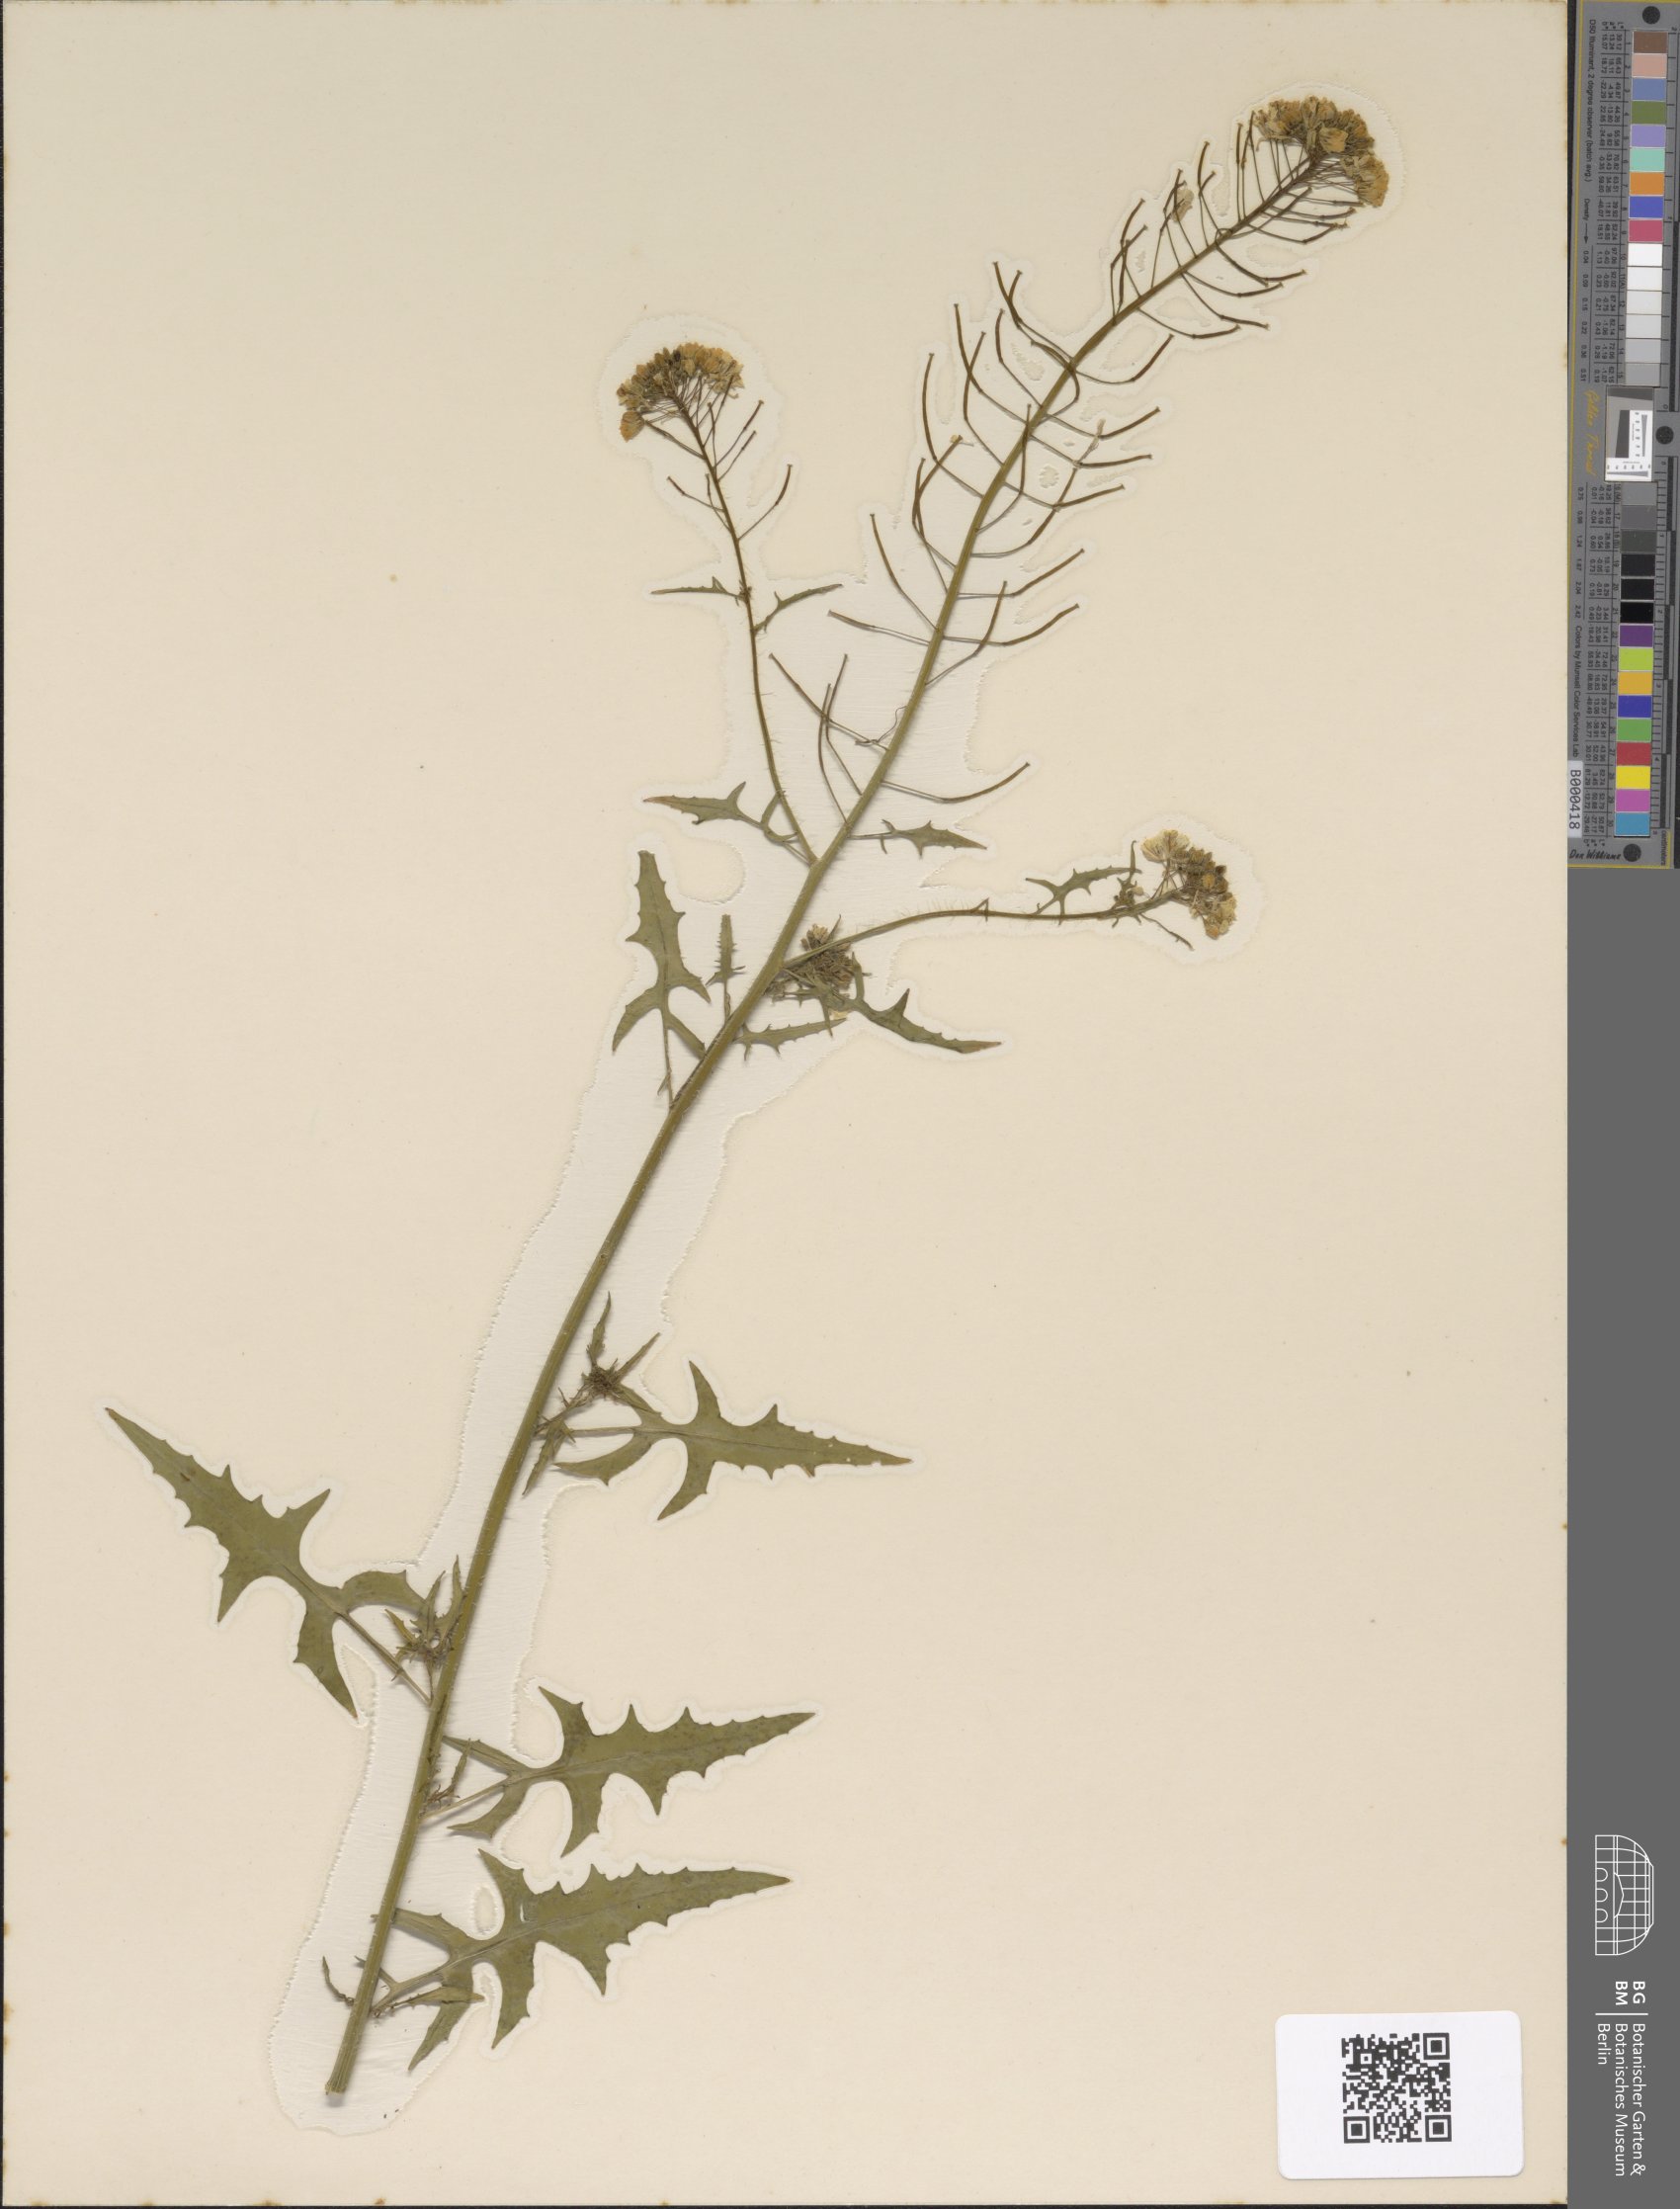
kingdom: Plantae
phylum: Tracheophyta
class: Magnoliopsida
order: Brassicales
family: Brassicaceae
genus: Sisymbrium
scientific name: Sisymbrium loeselii
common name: False london-rocket
